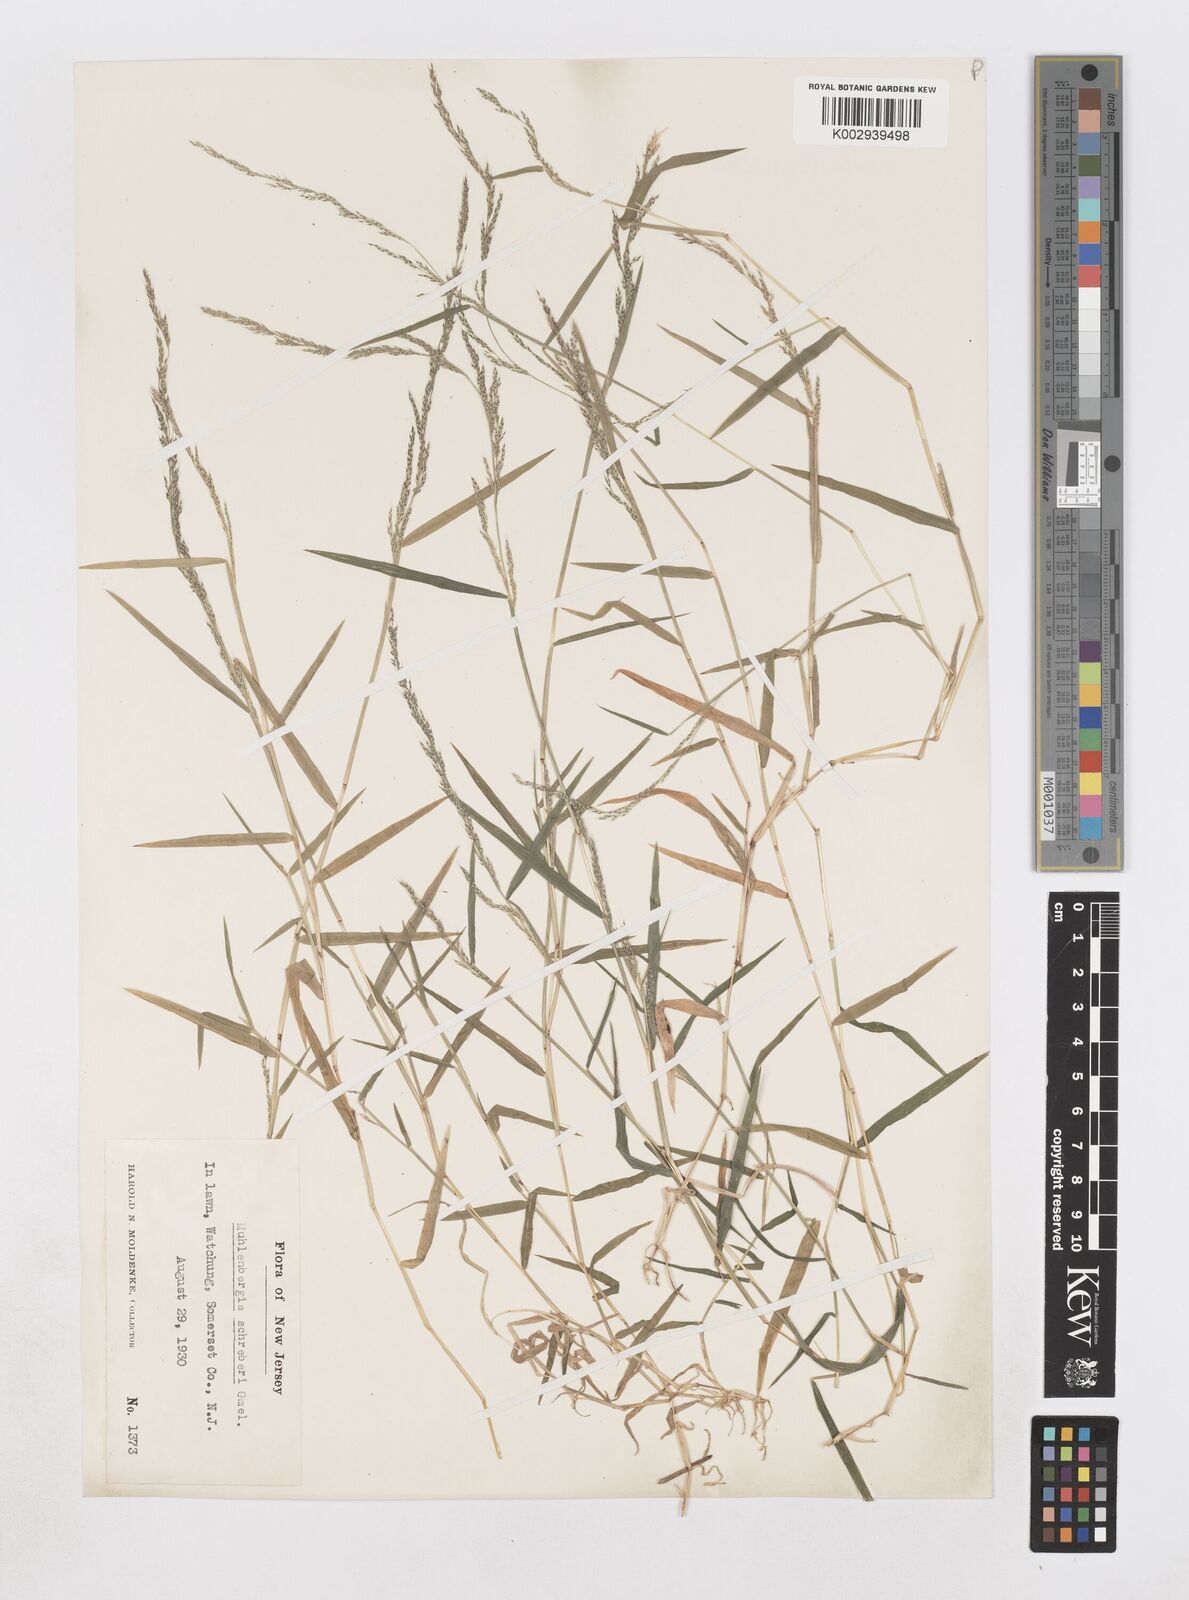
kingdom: Plantae
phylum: Tracheophyta
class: Liliopsida
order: Poales
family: Poaceae
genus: Muhlenbergia
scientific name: Muhlenbergia schreberi
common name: Nimblewill
